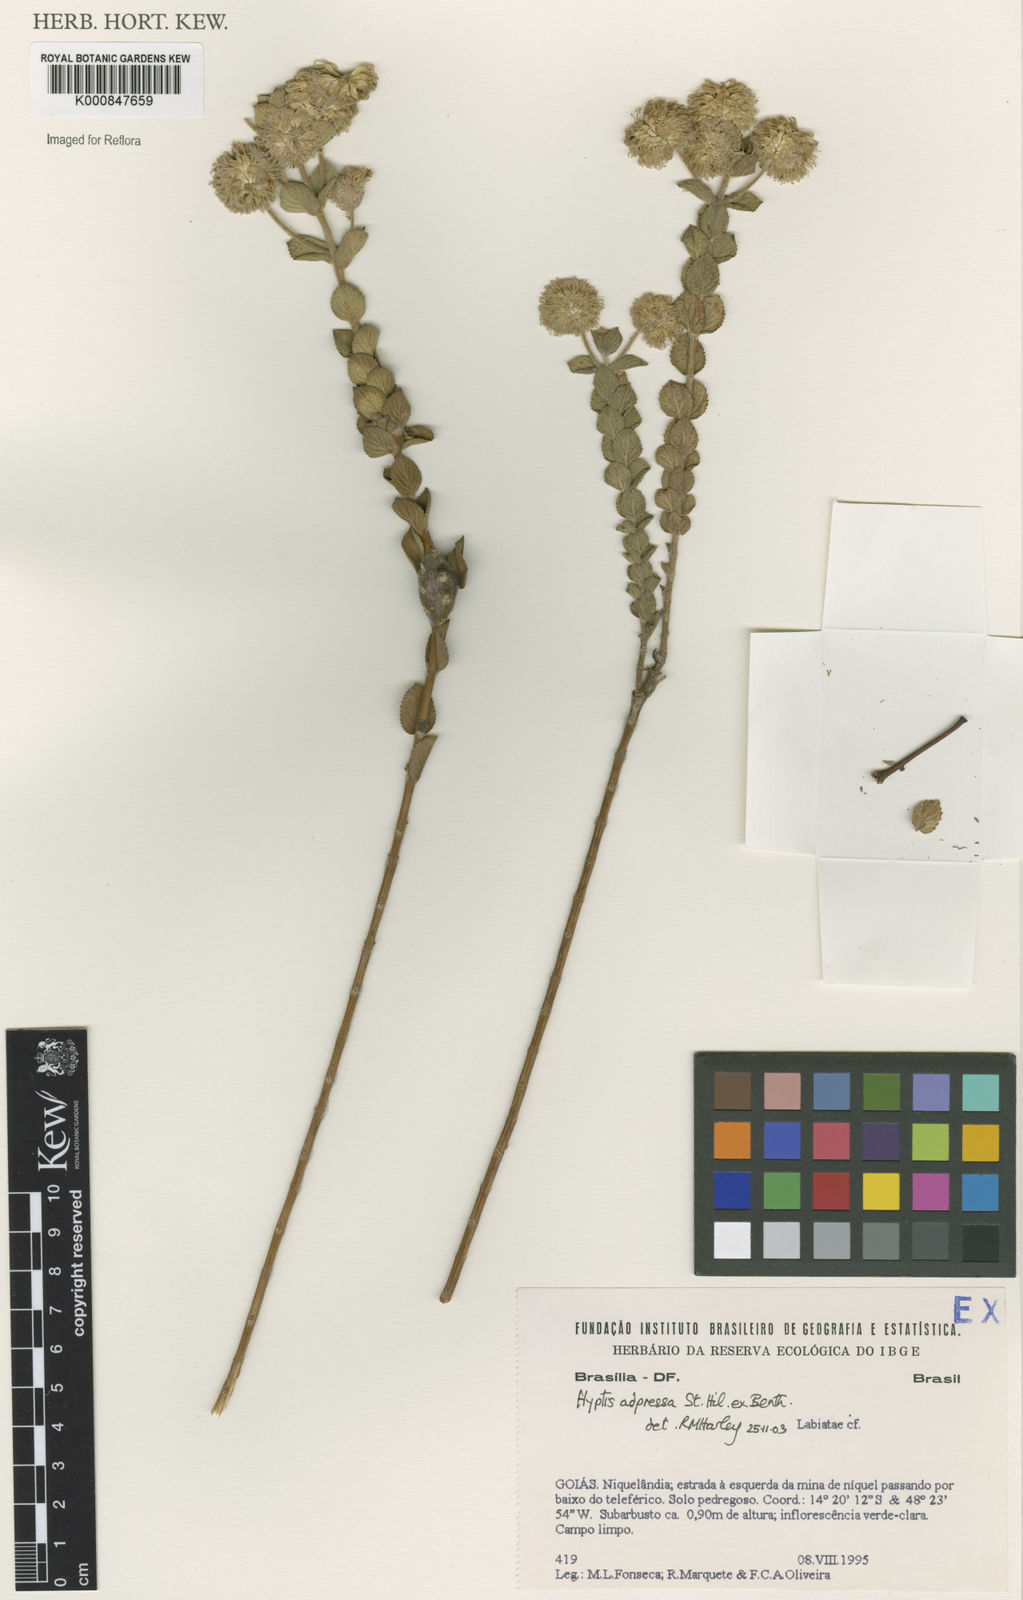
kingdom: Plantae
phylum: Tracheophyta
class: Magnoliopsida
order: Lamiales
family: Lamiaceae
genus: Cyanocephalus
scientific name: Cyanocephalus adpressus
